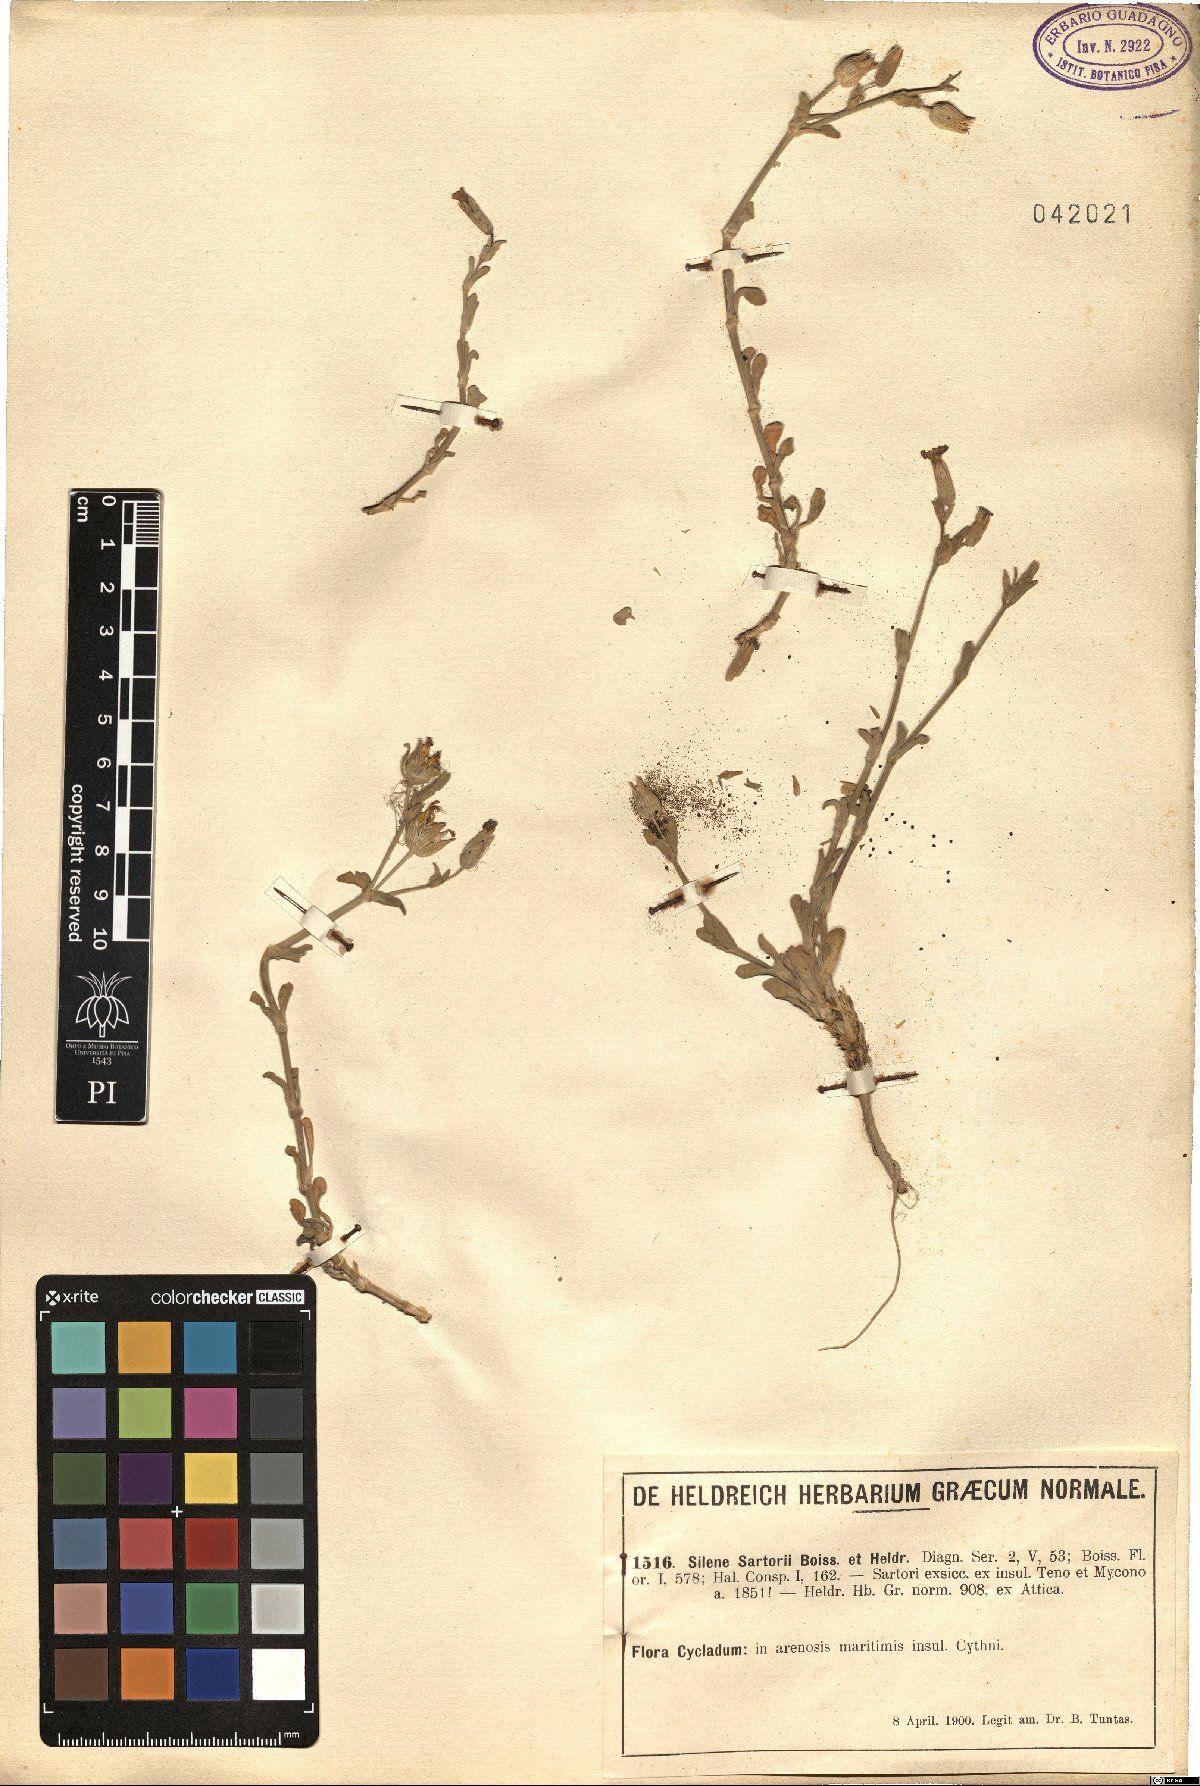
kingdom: Plantae
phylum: Tracheophyta
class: Magnoliopsida
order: Caryophyllales
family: Caryophyllaceae
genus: Silene
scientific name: Silene sartorii
